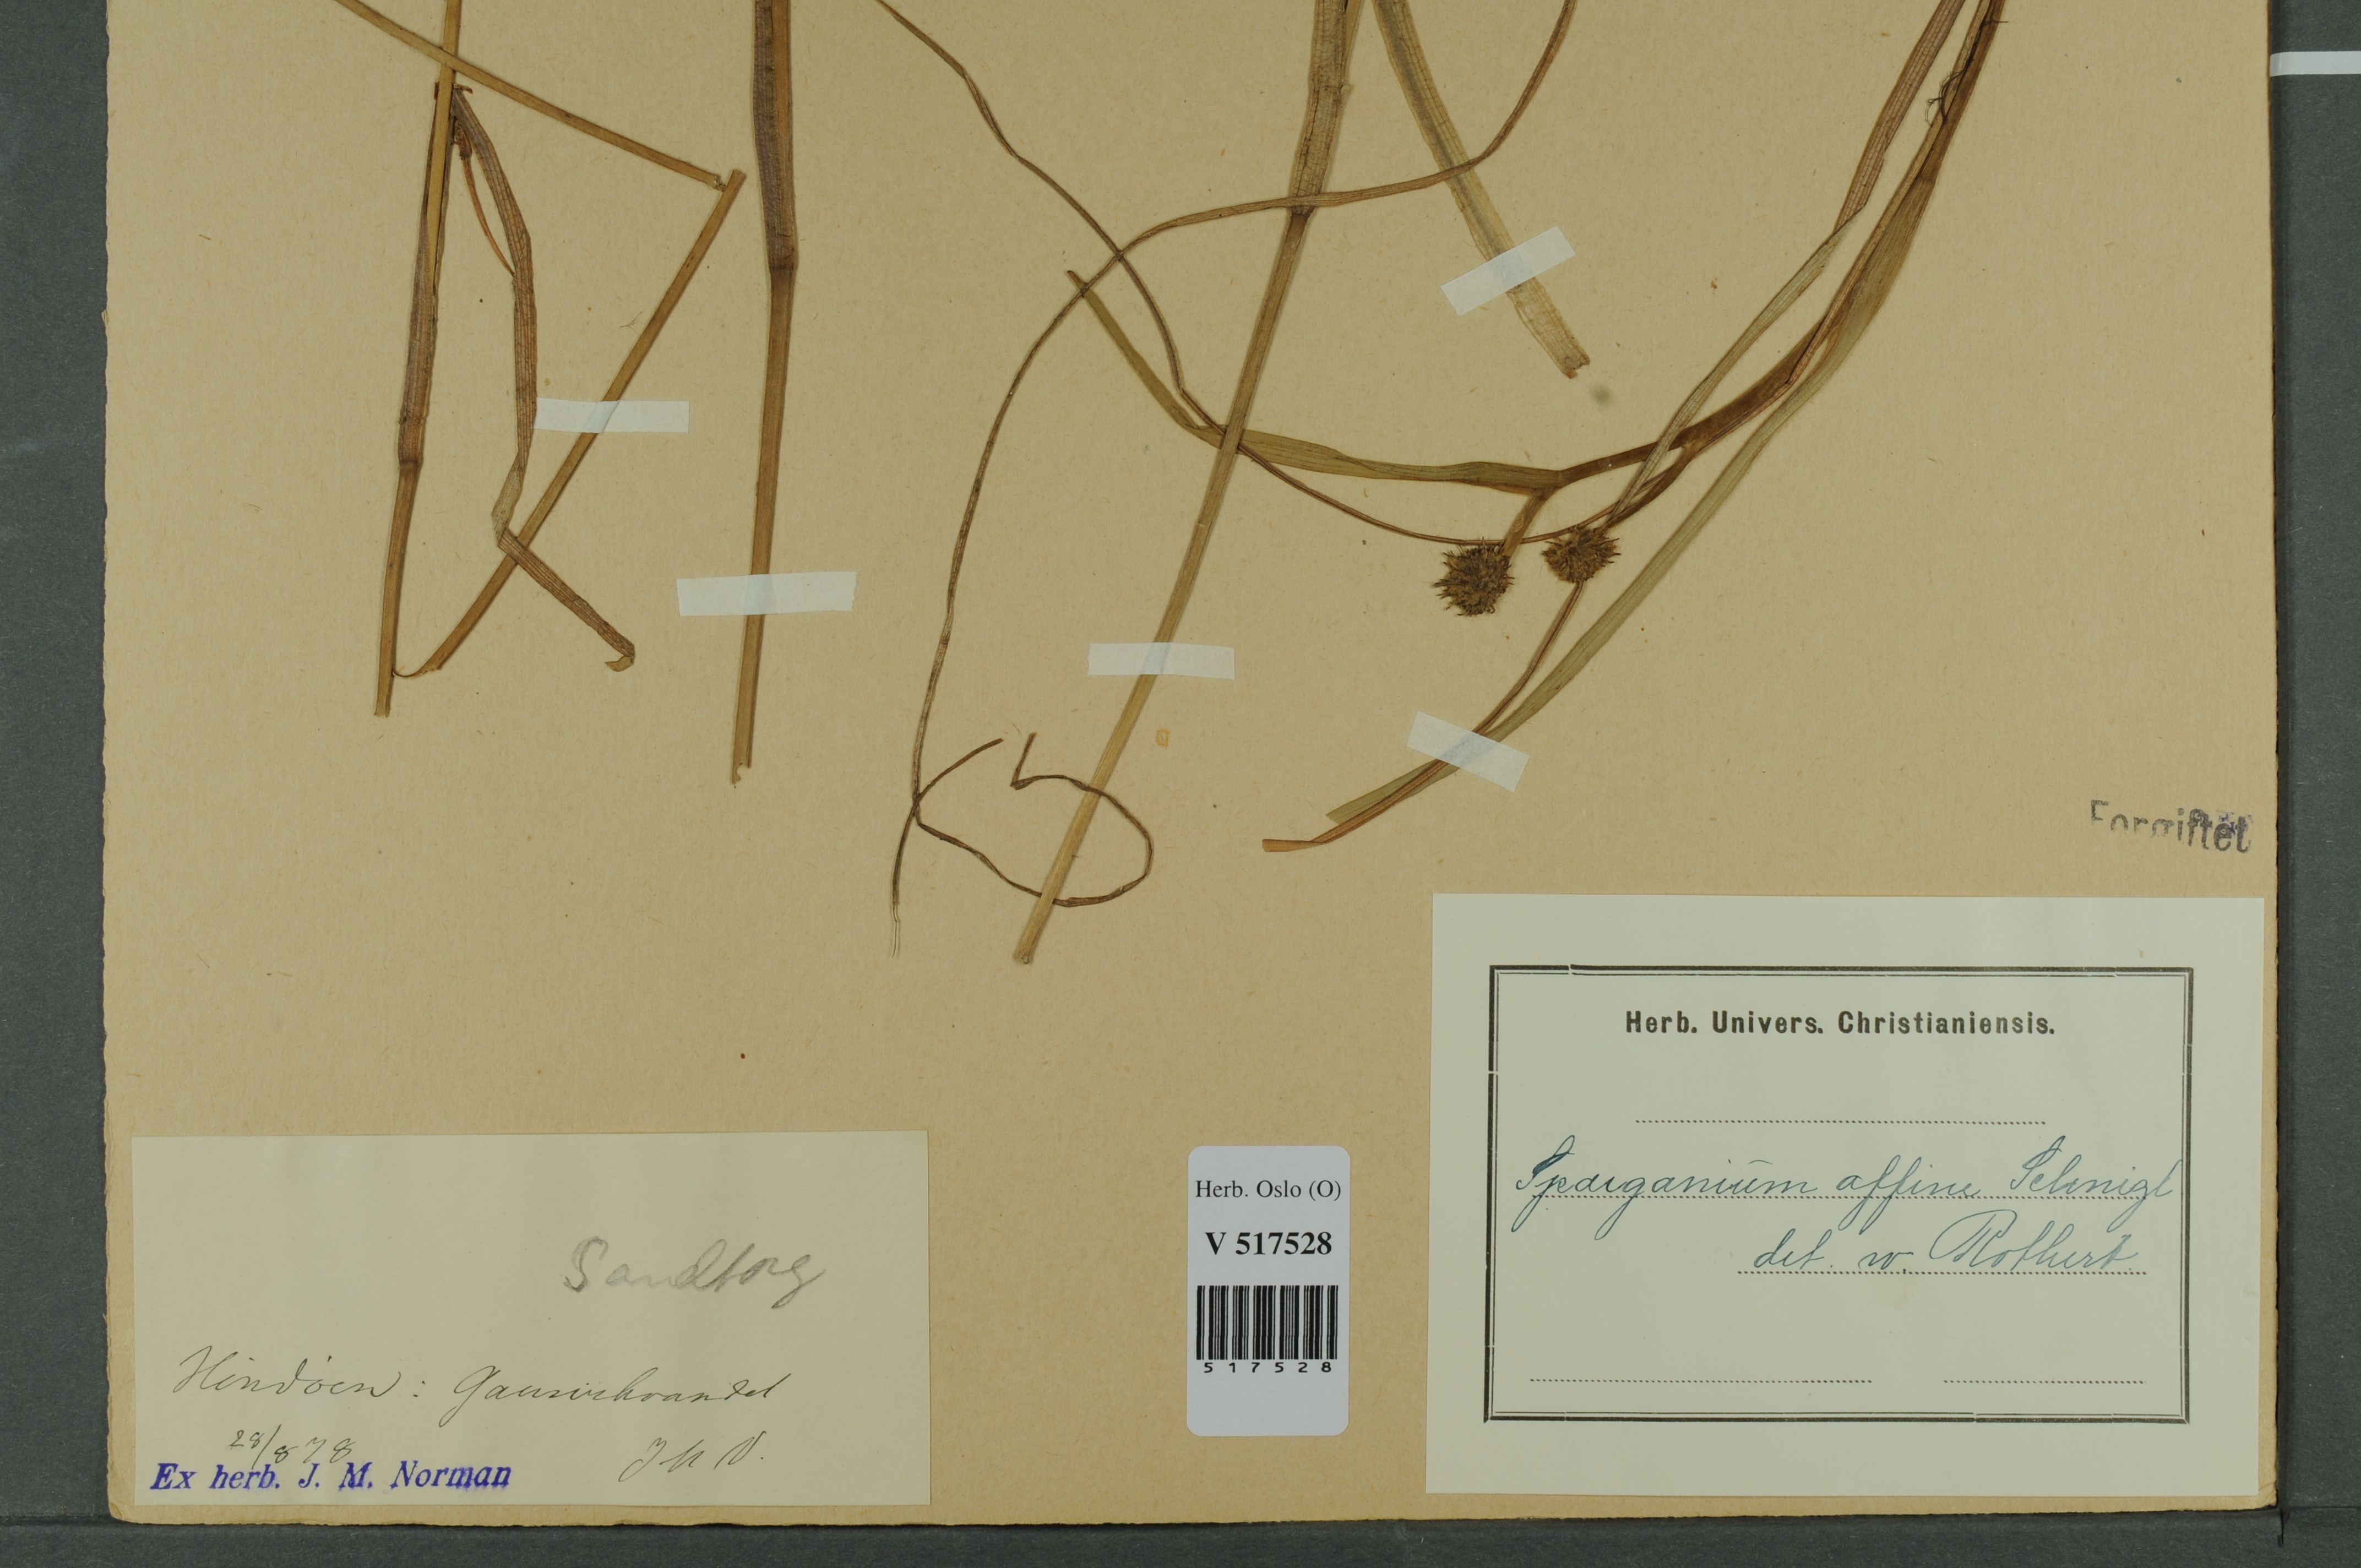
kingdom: Plantae
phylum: Tracheophyta
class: Liliopsida
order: Poales
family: Typhaceae
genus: Sparganium
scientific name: Sparganium angustifolium
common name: Floating bur-reed
